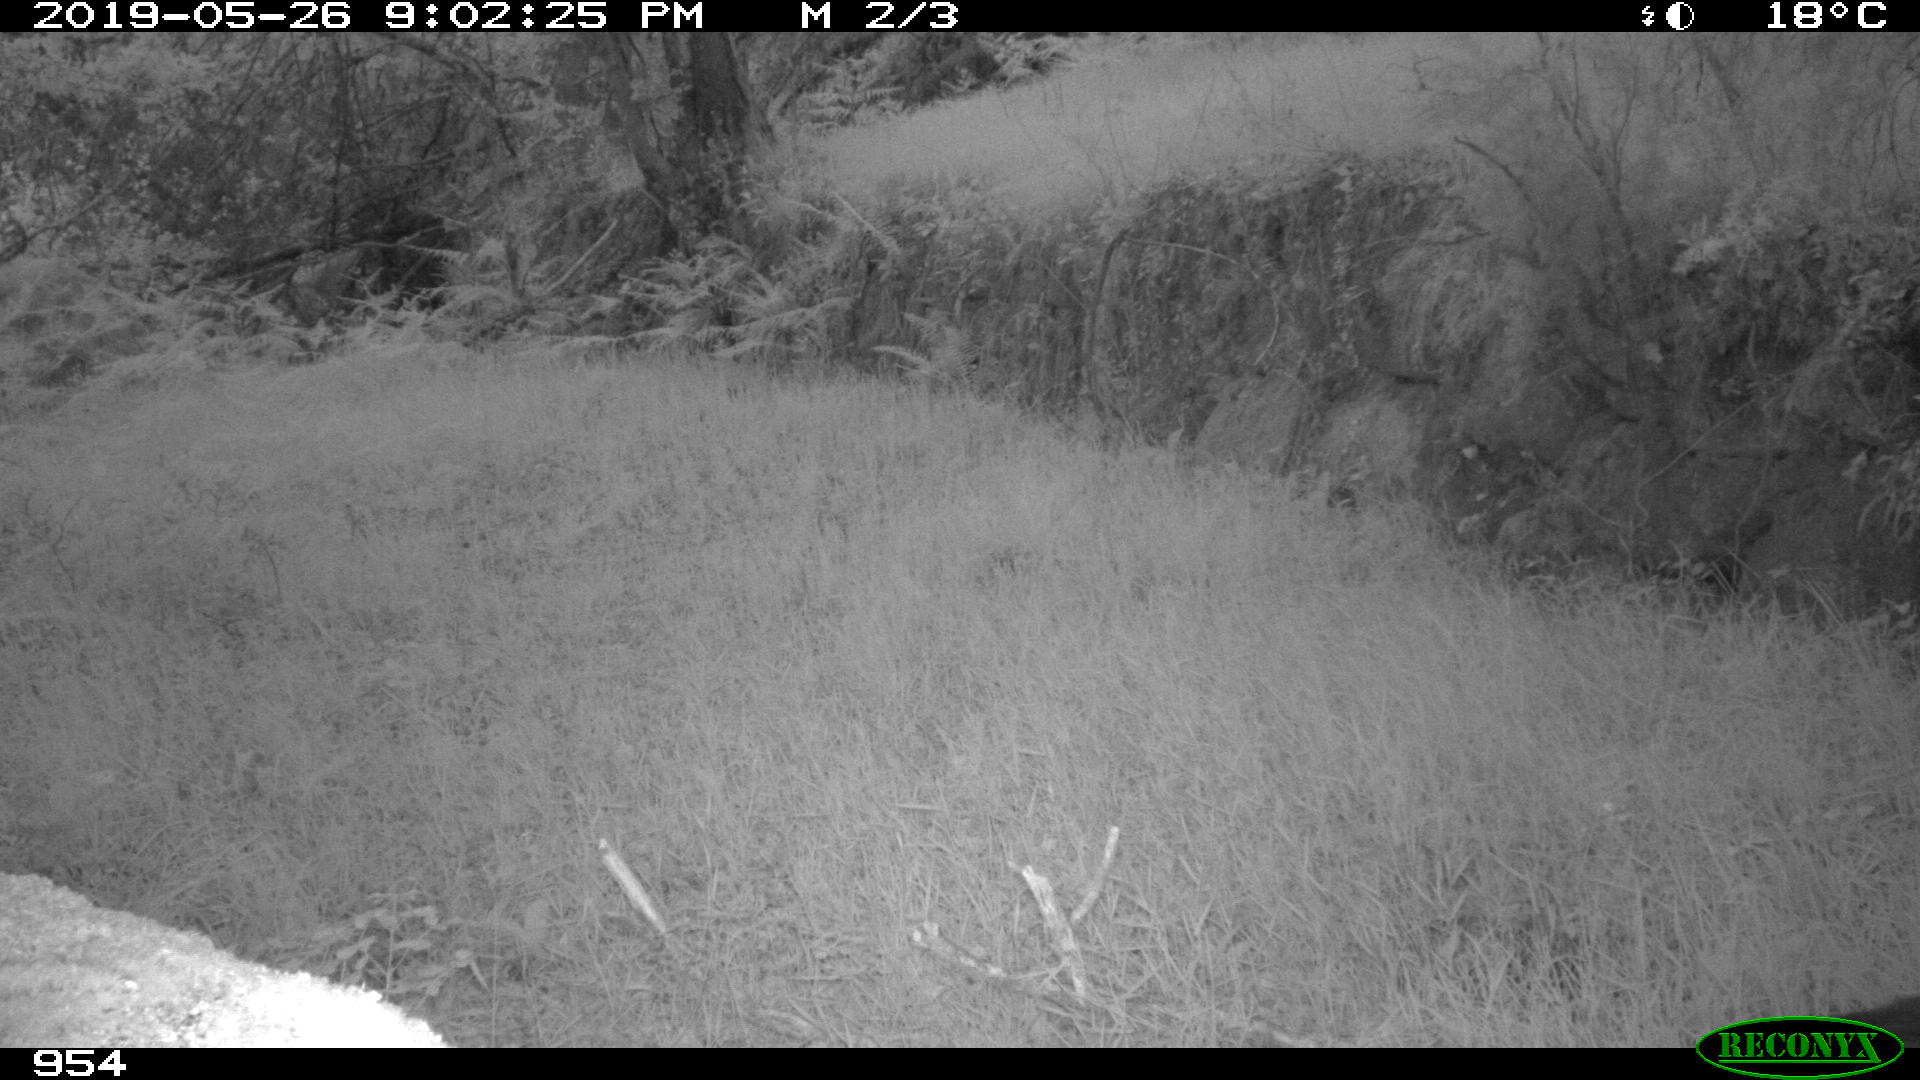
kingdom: Animalia
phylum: Chordata
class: Mammalia
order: Artiodactyla
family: Suidae
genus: Sus
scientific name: Sus scrofa
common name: Wild boar
